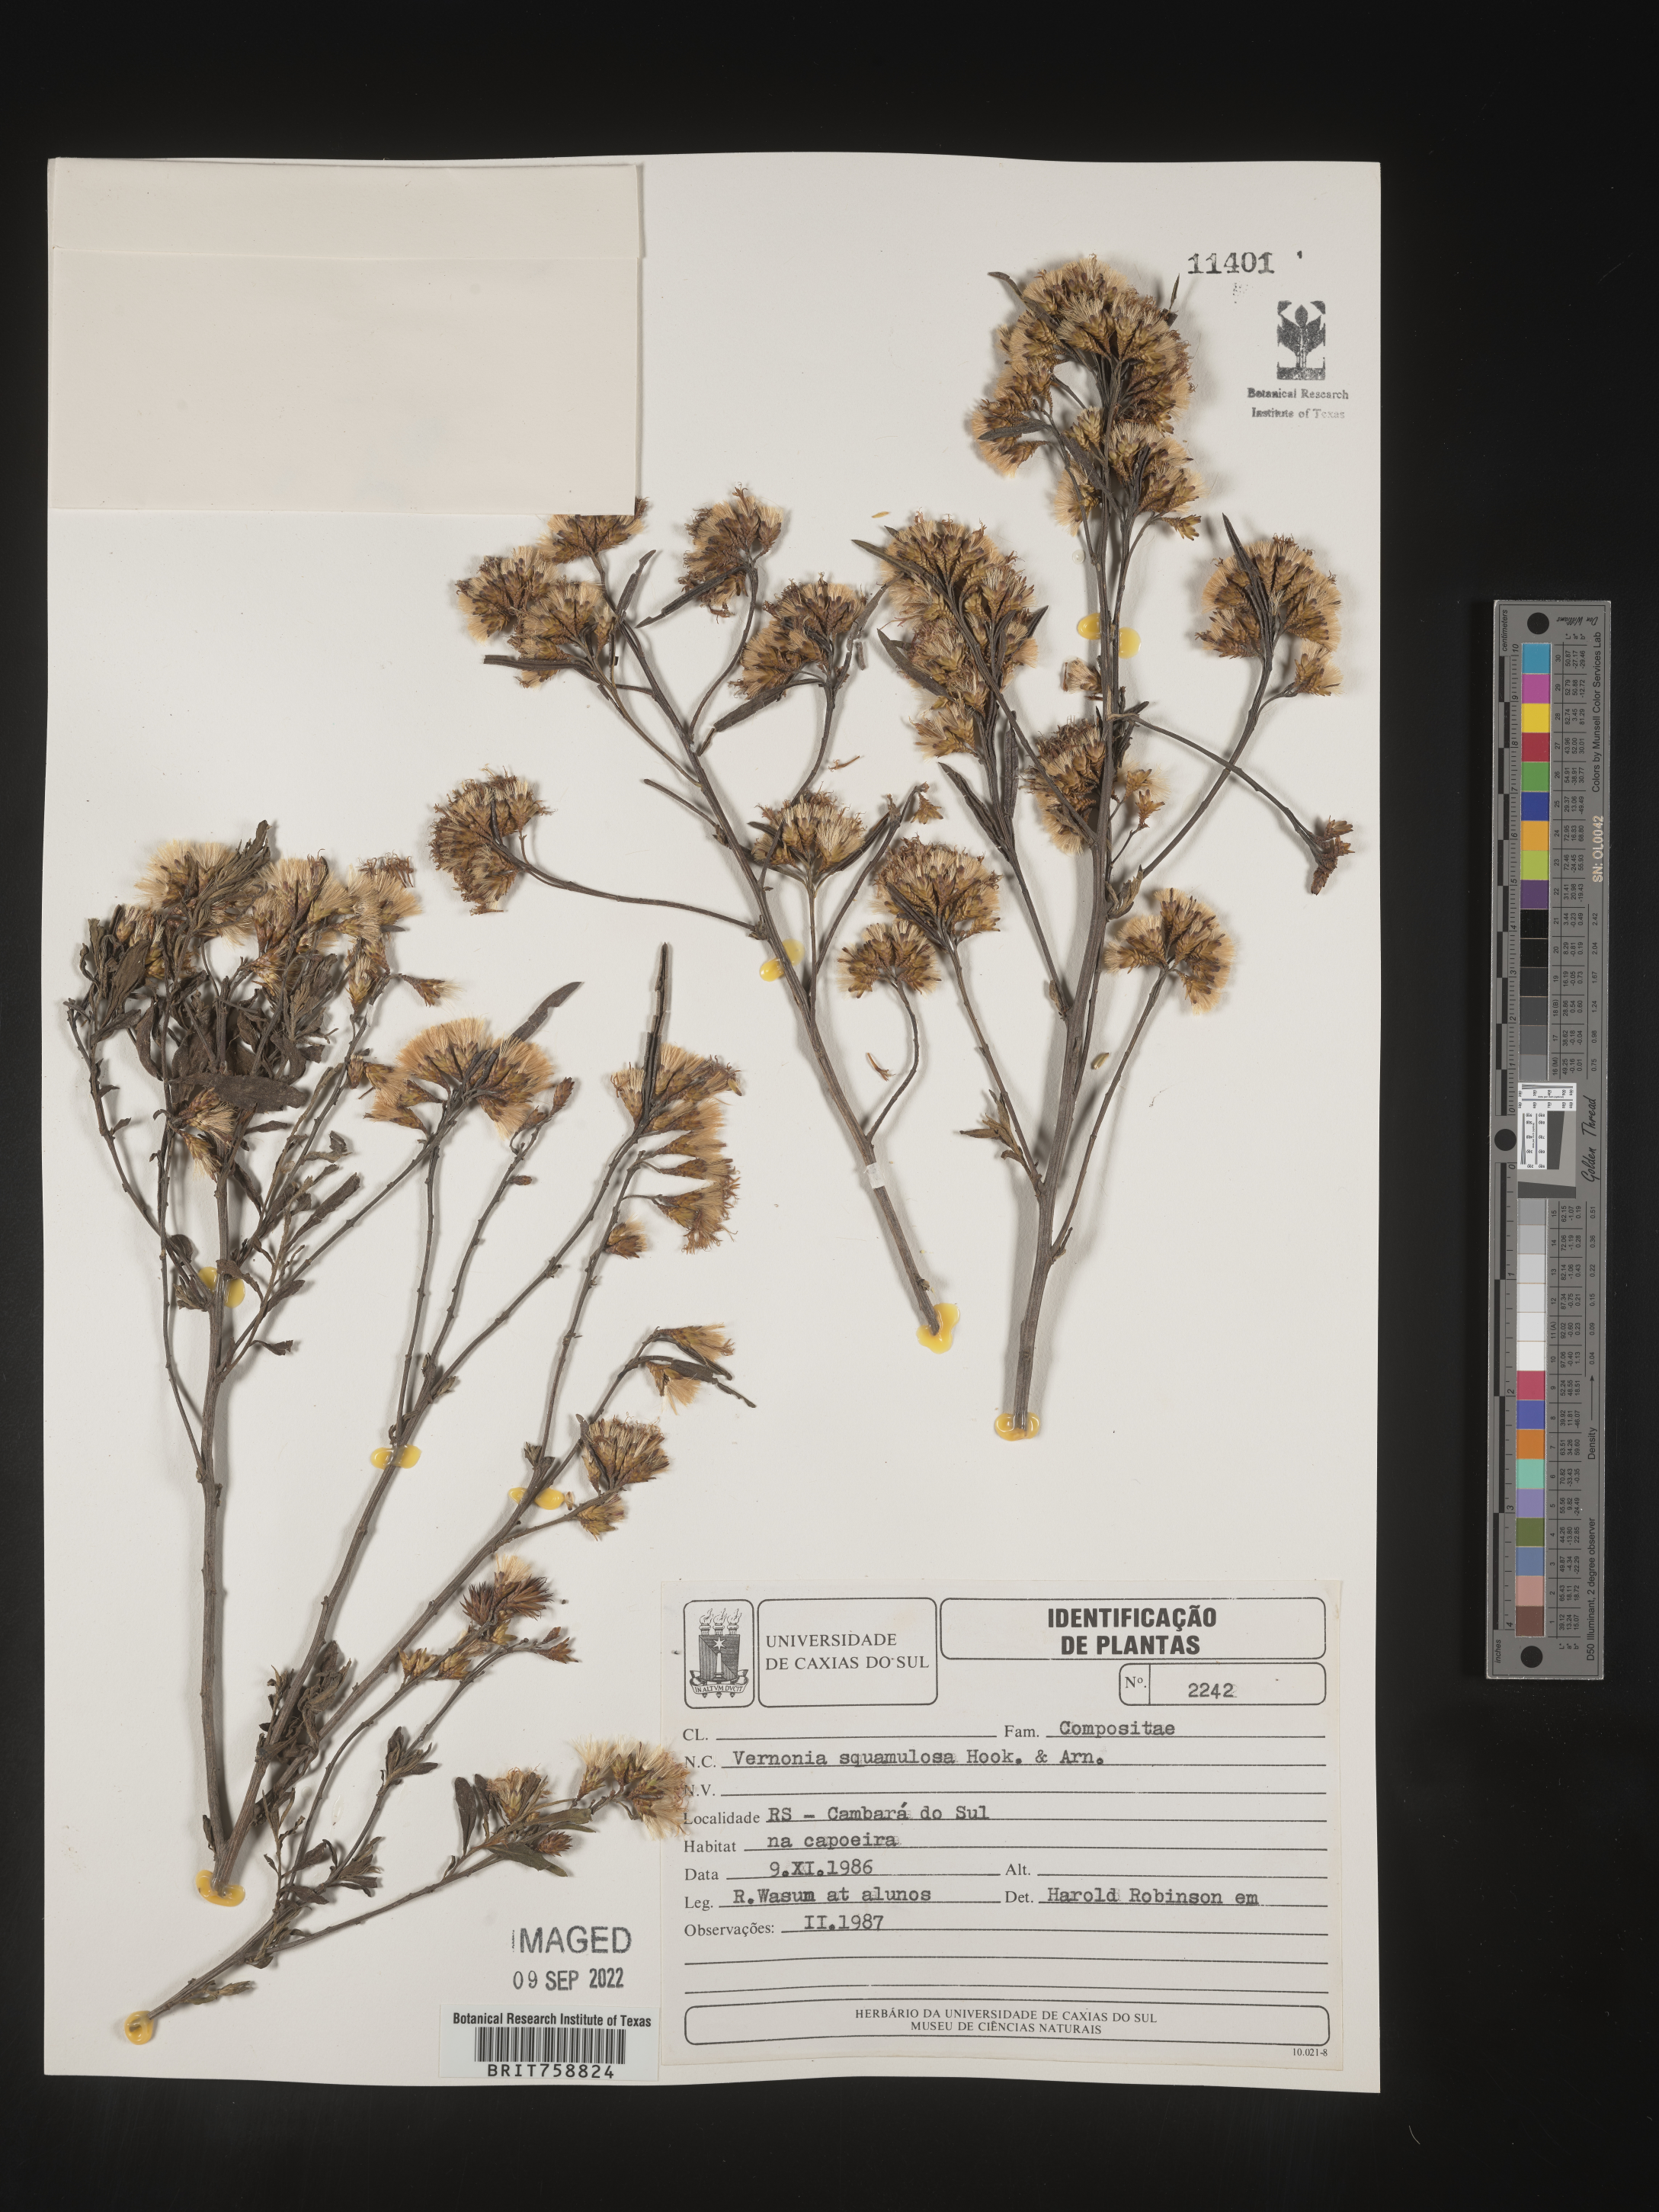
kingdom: Plantae
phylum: Tracheophyta
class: Magnoliopsida
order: Asterales
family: Asteraceae
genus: Vernonia
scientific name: Vernonia
